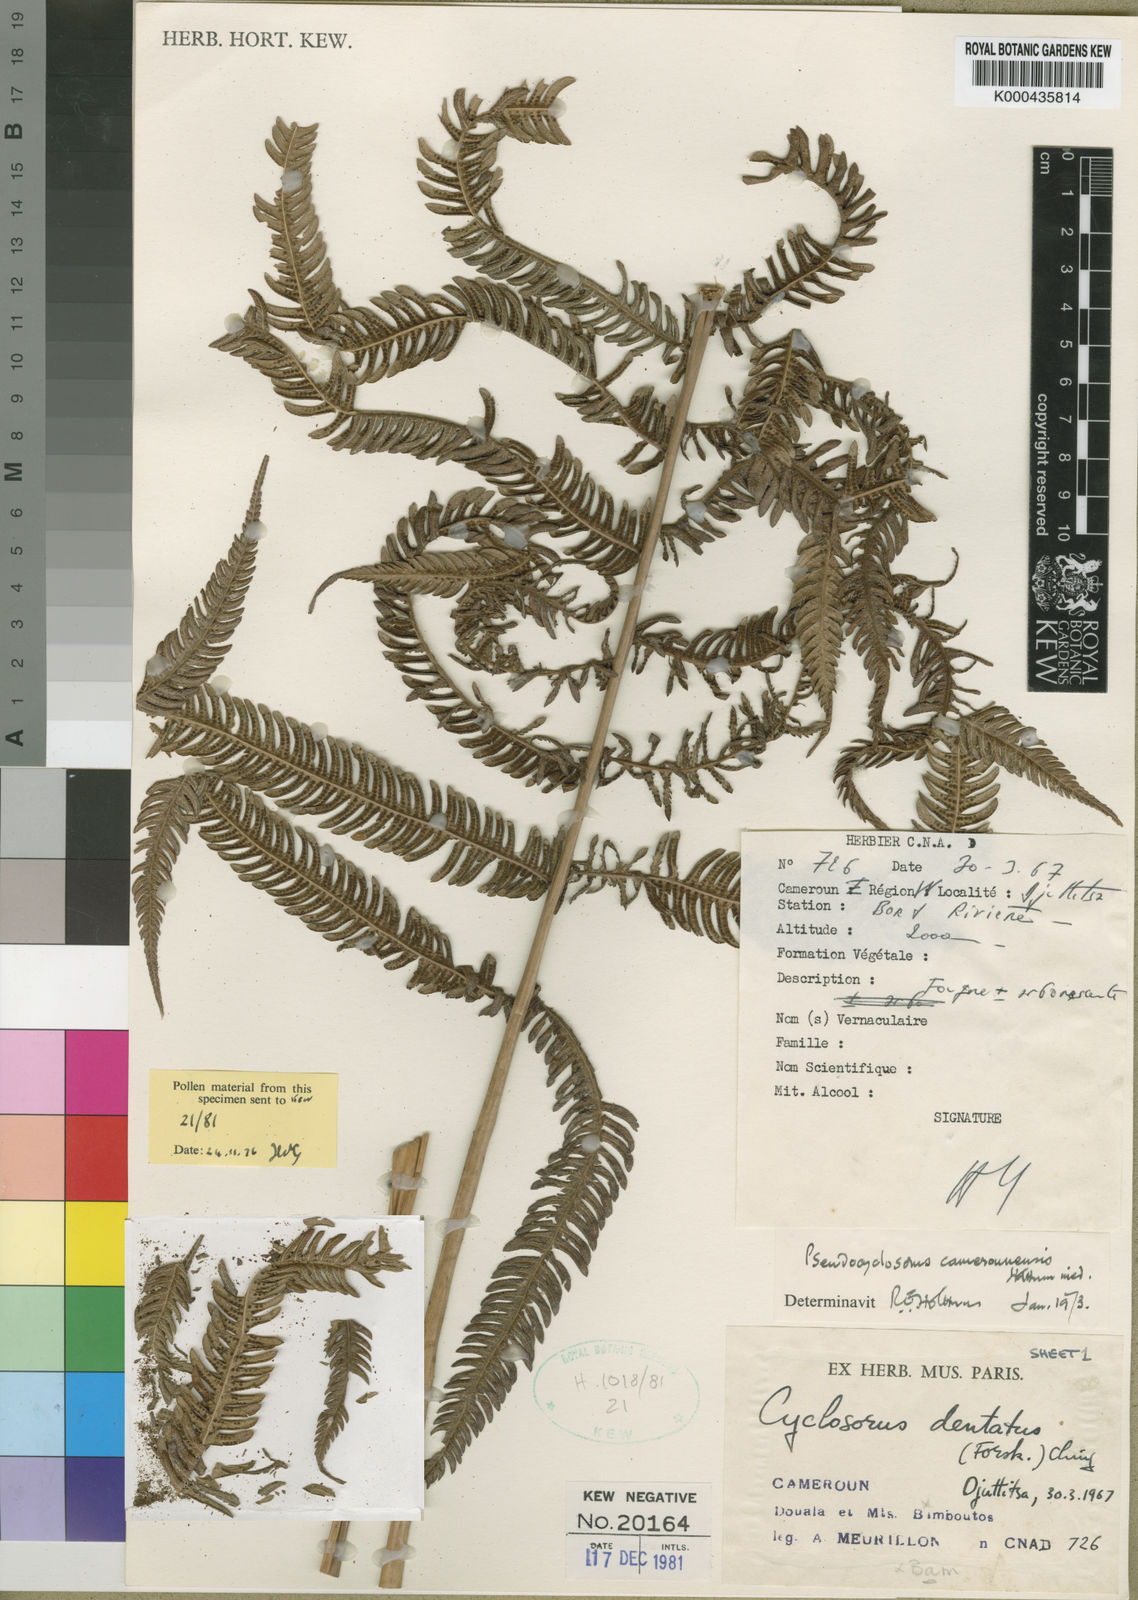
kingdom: Plantae
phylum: Tracheophyta
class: Polypodiopsida
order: Polypodiales
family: Thelypteridaceae
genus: Pseudocyclosorus
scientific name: Pseudocyclosorus camerounensis
